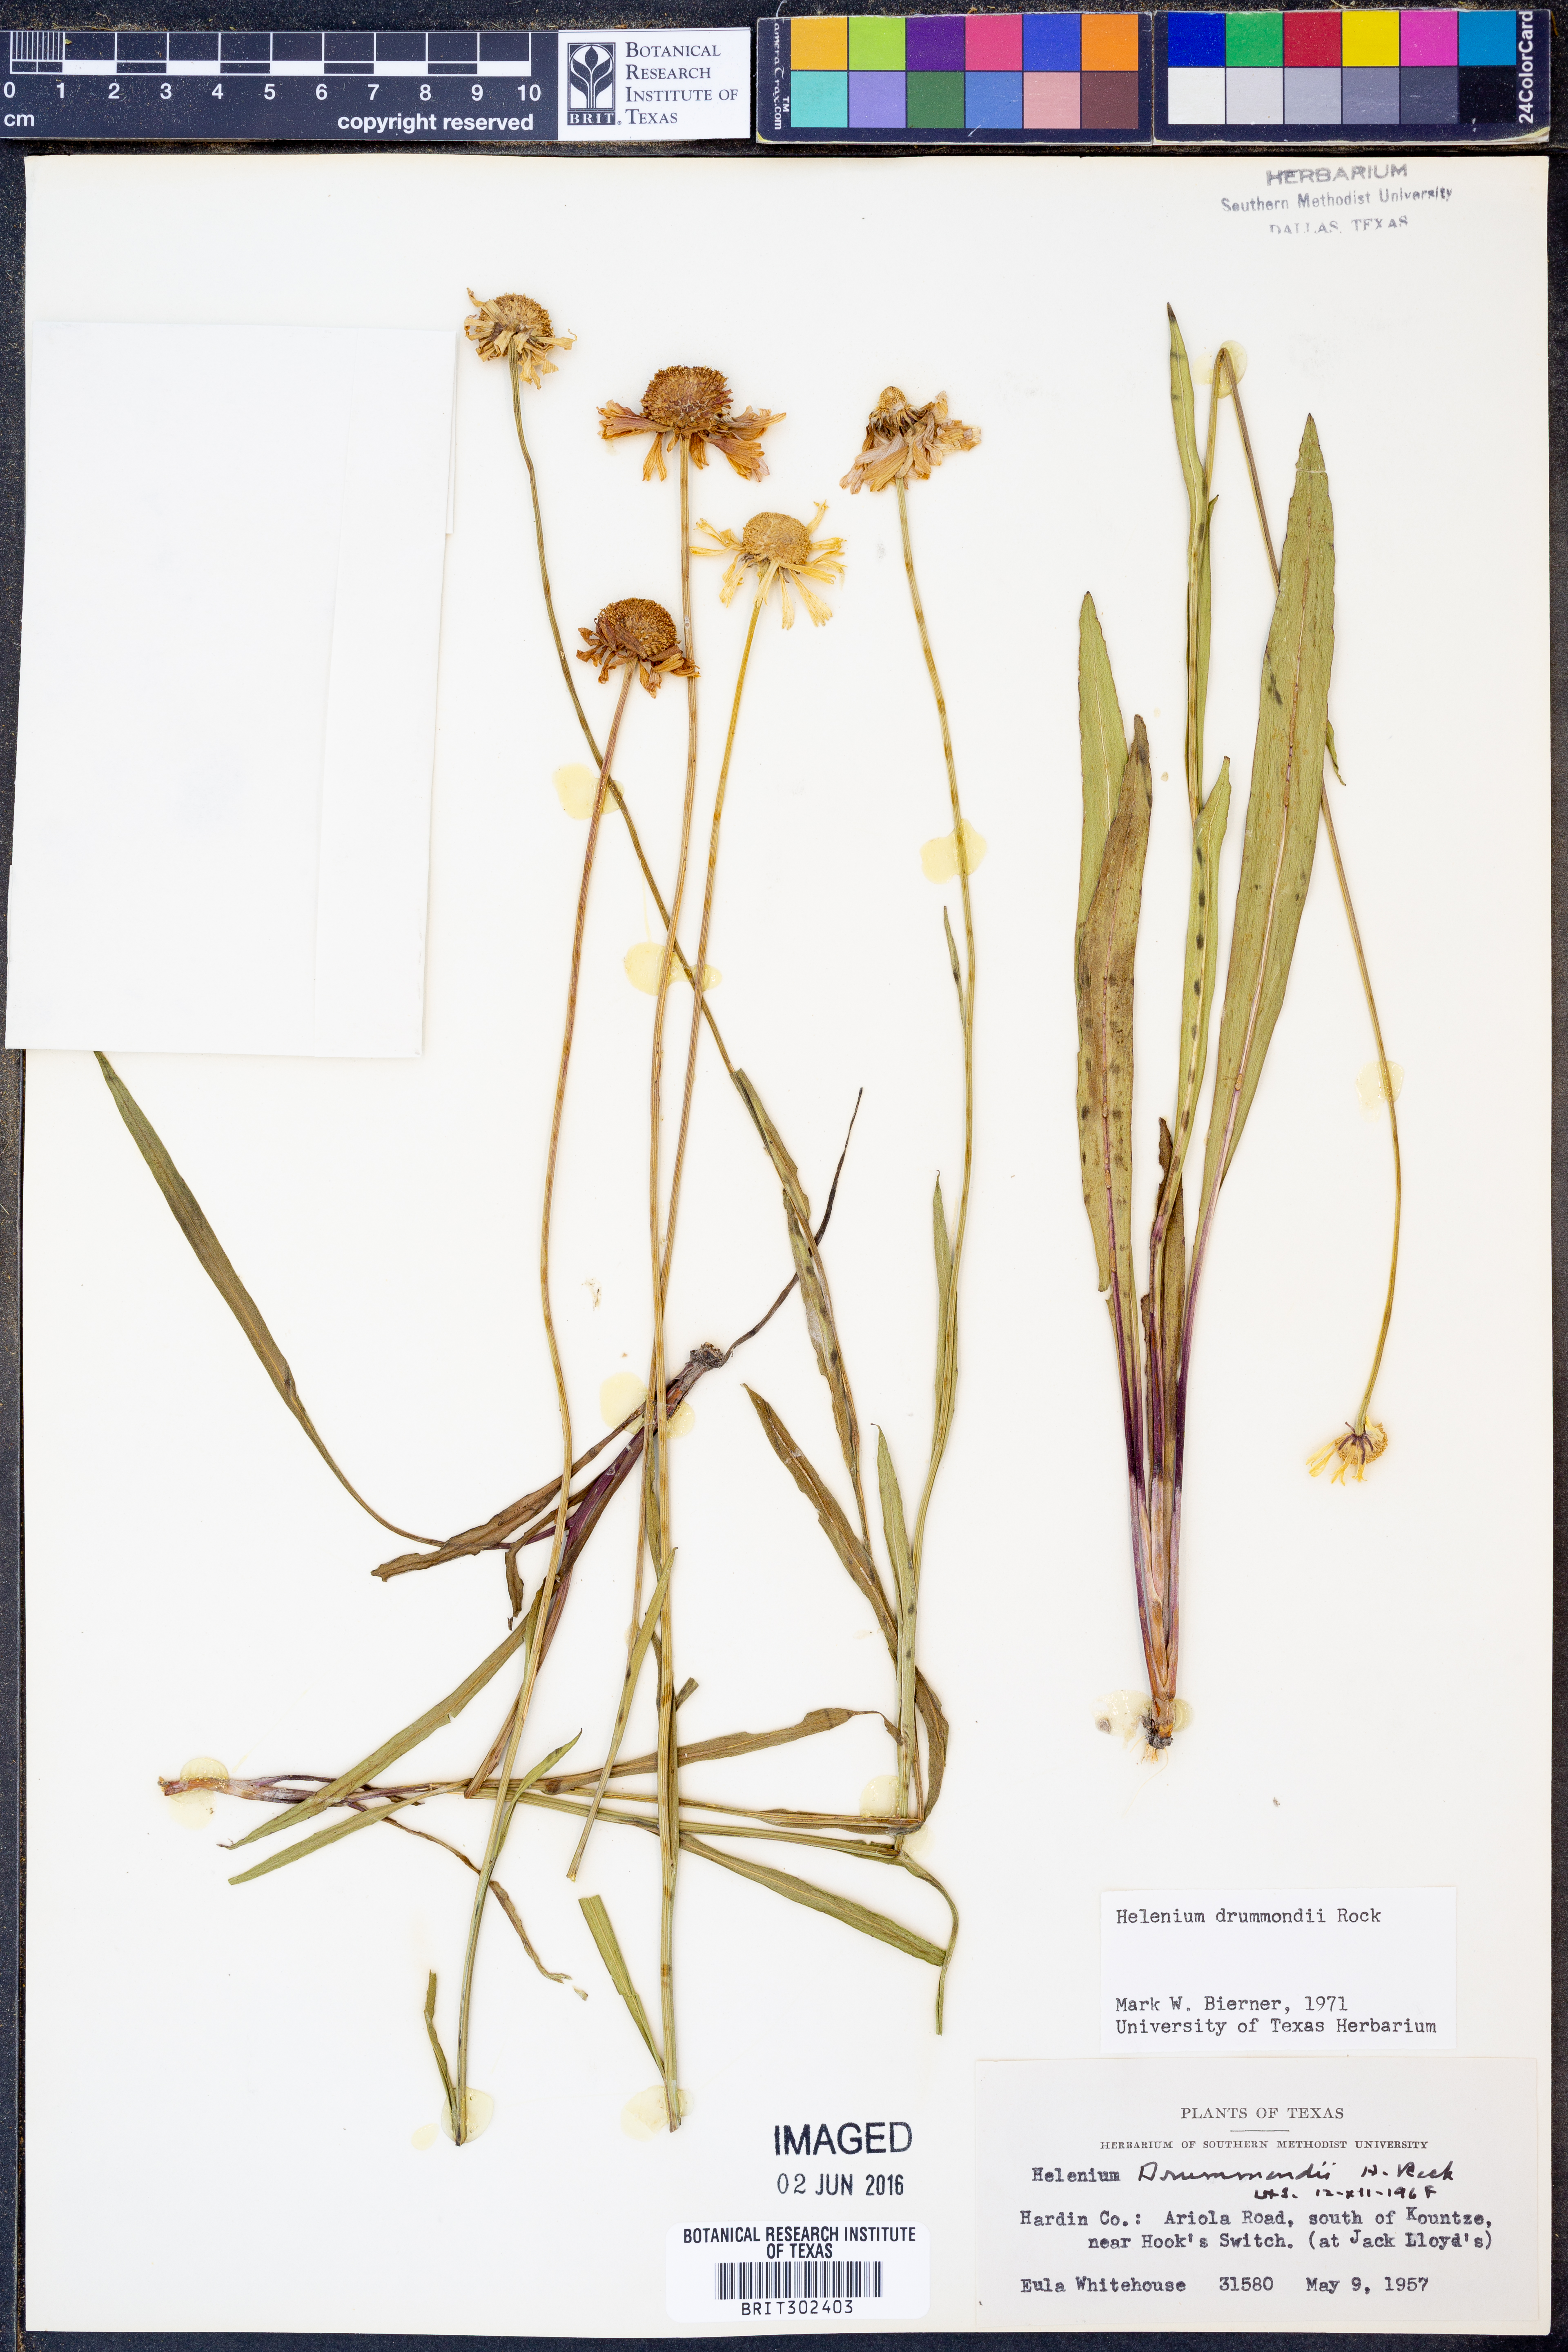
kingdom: Plantae
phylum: Tracheophyta
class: Magnoliopsida
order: Asterales
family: Asteraceae
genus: Helenium
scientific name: Helenium drummondii
